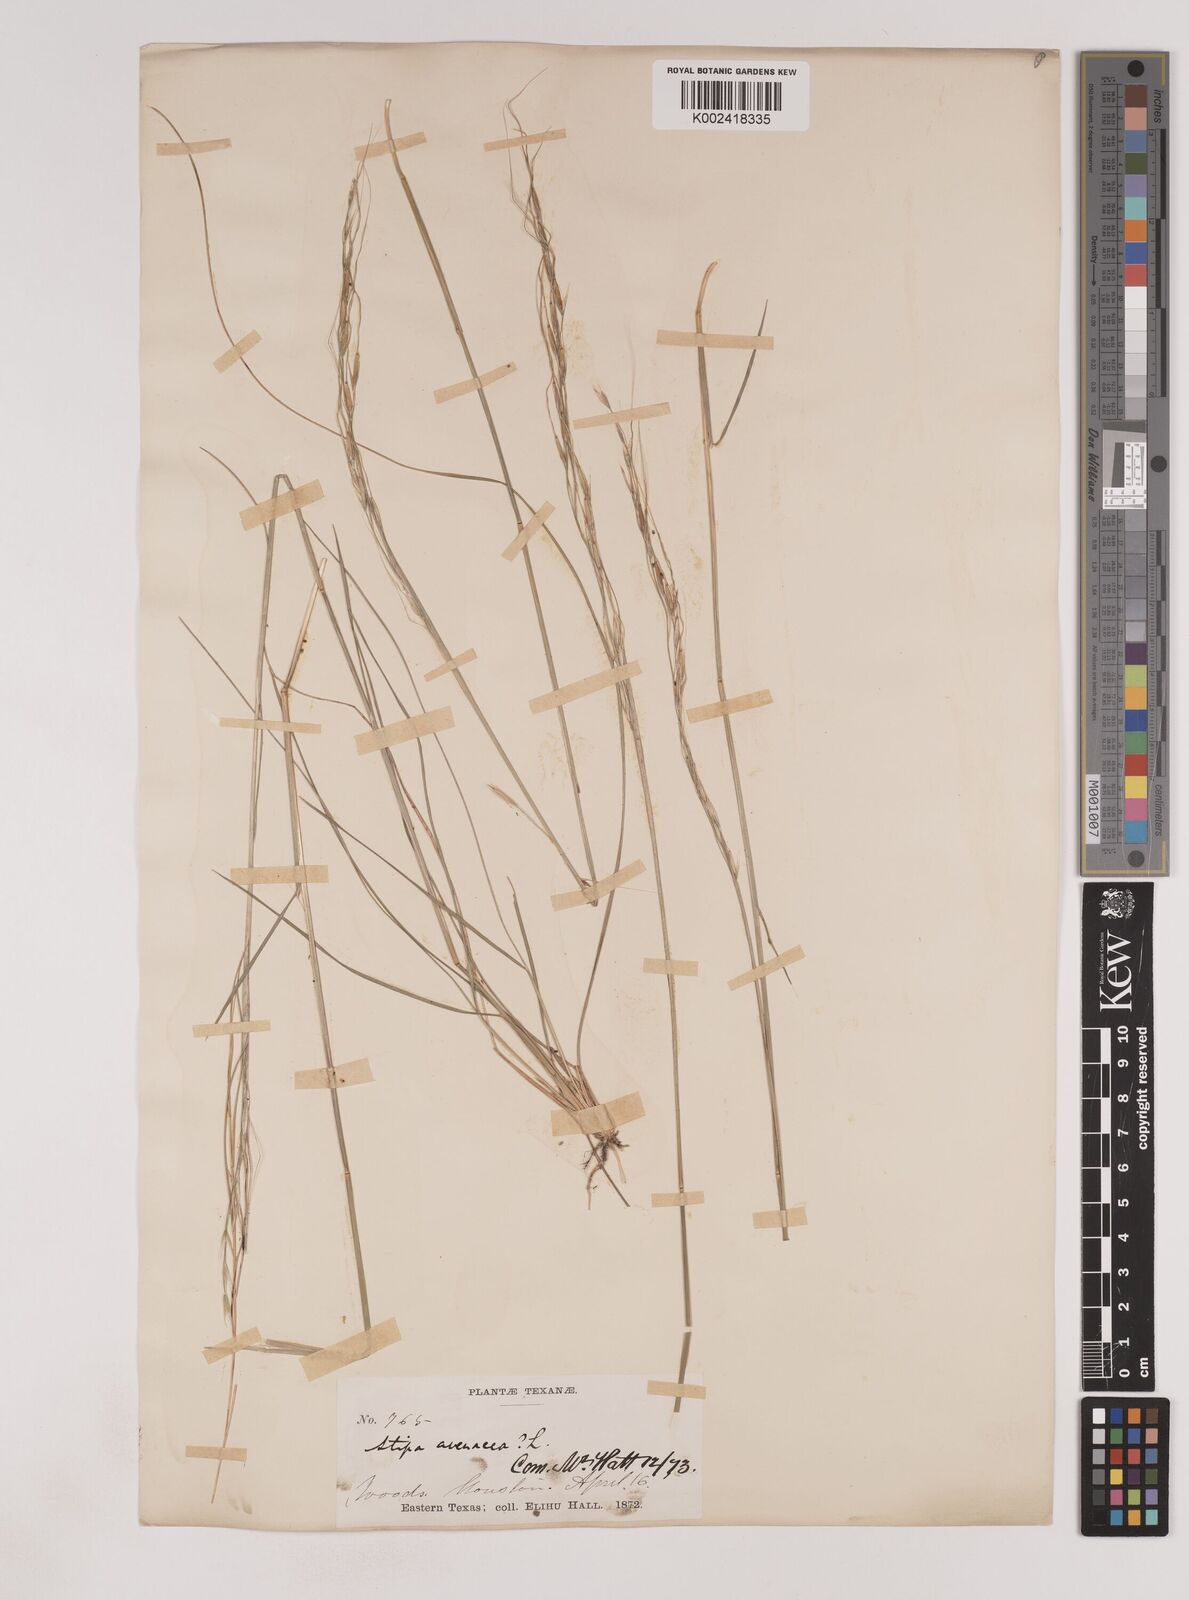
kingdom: Plantae
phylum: Tracheophyta
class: Liliopsida
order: Poales
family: Poaceae
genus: Piptochaetium
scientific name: Piptochaetium avenaceum
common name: Black bunchgrass
